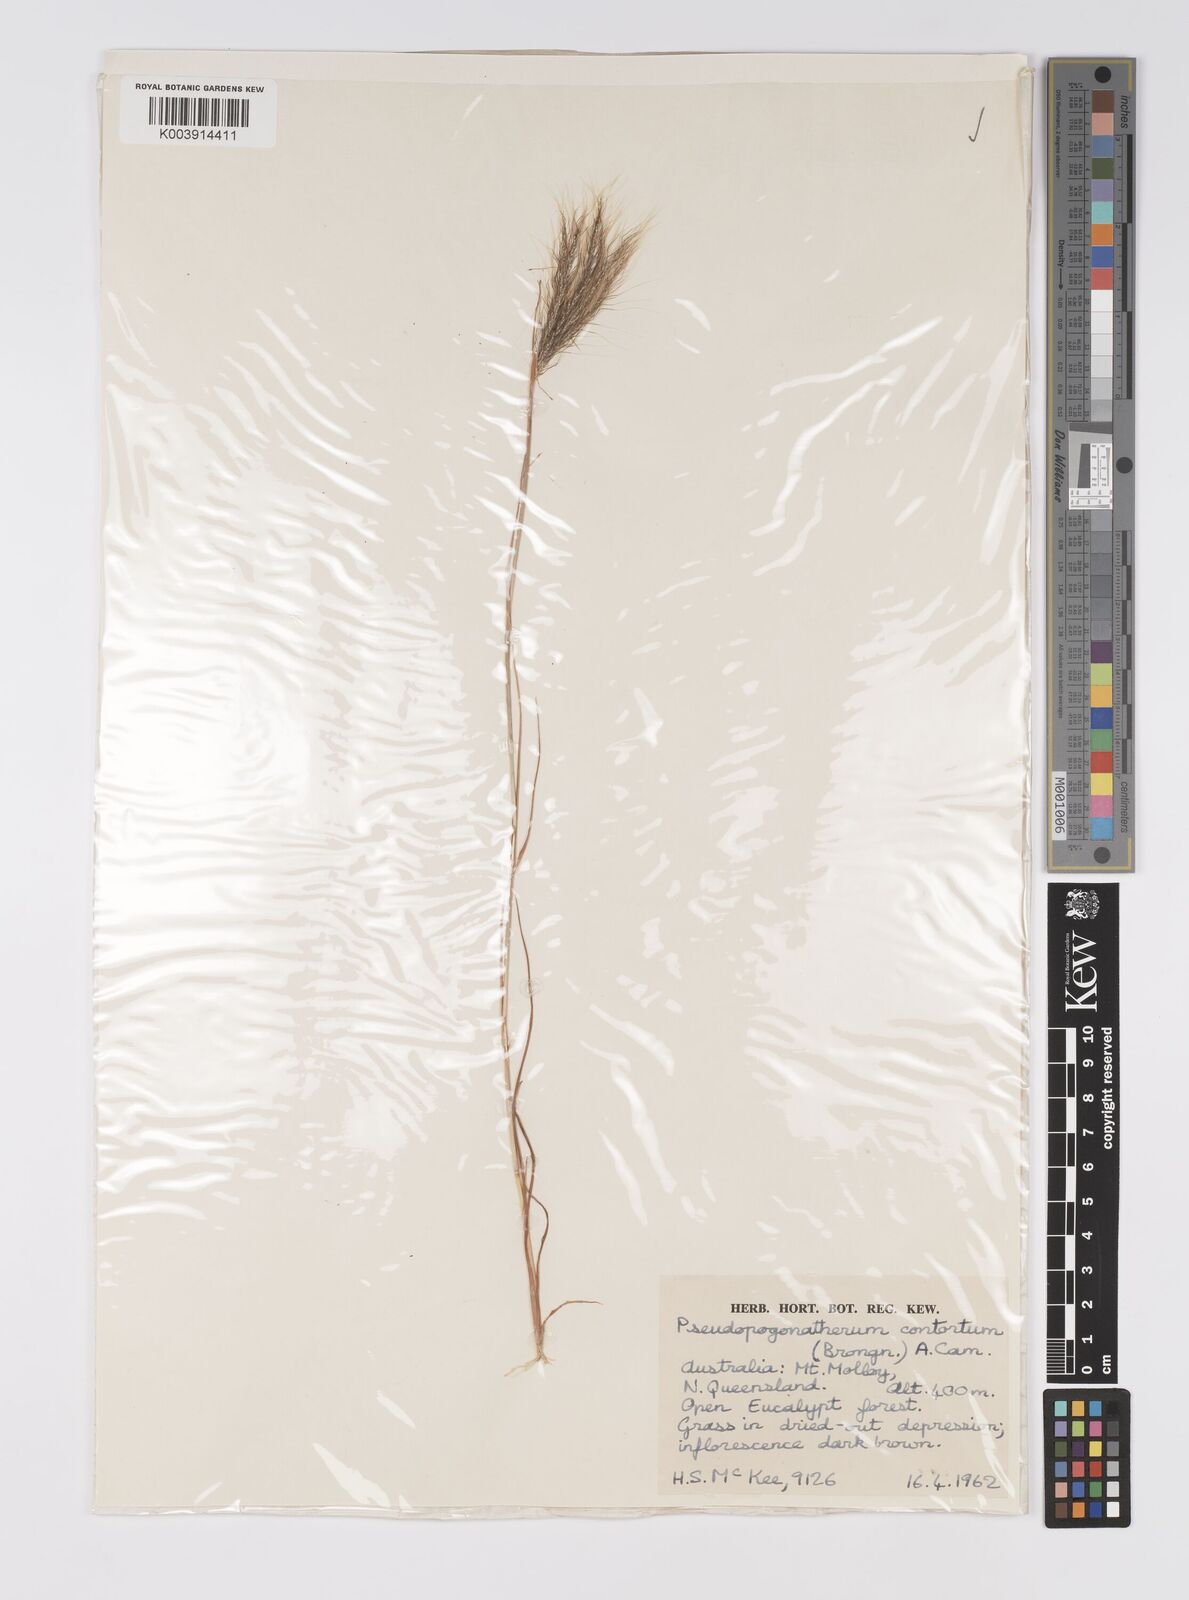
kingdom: Plantae
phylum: Tracheophyta
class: Liliopsida
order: Poales
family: Poaceae
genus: Pseudopogonatherum
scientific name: Pseudopogonatherum contortum
